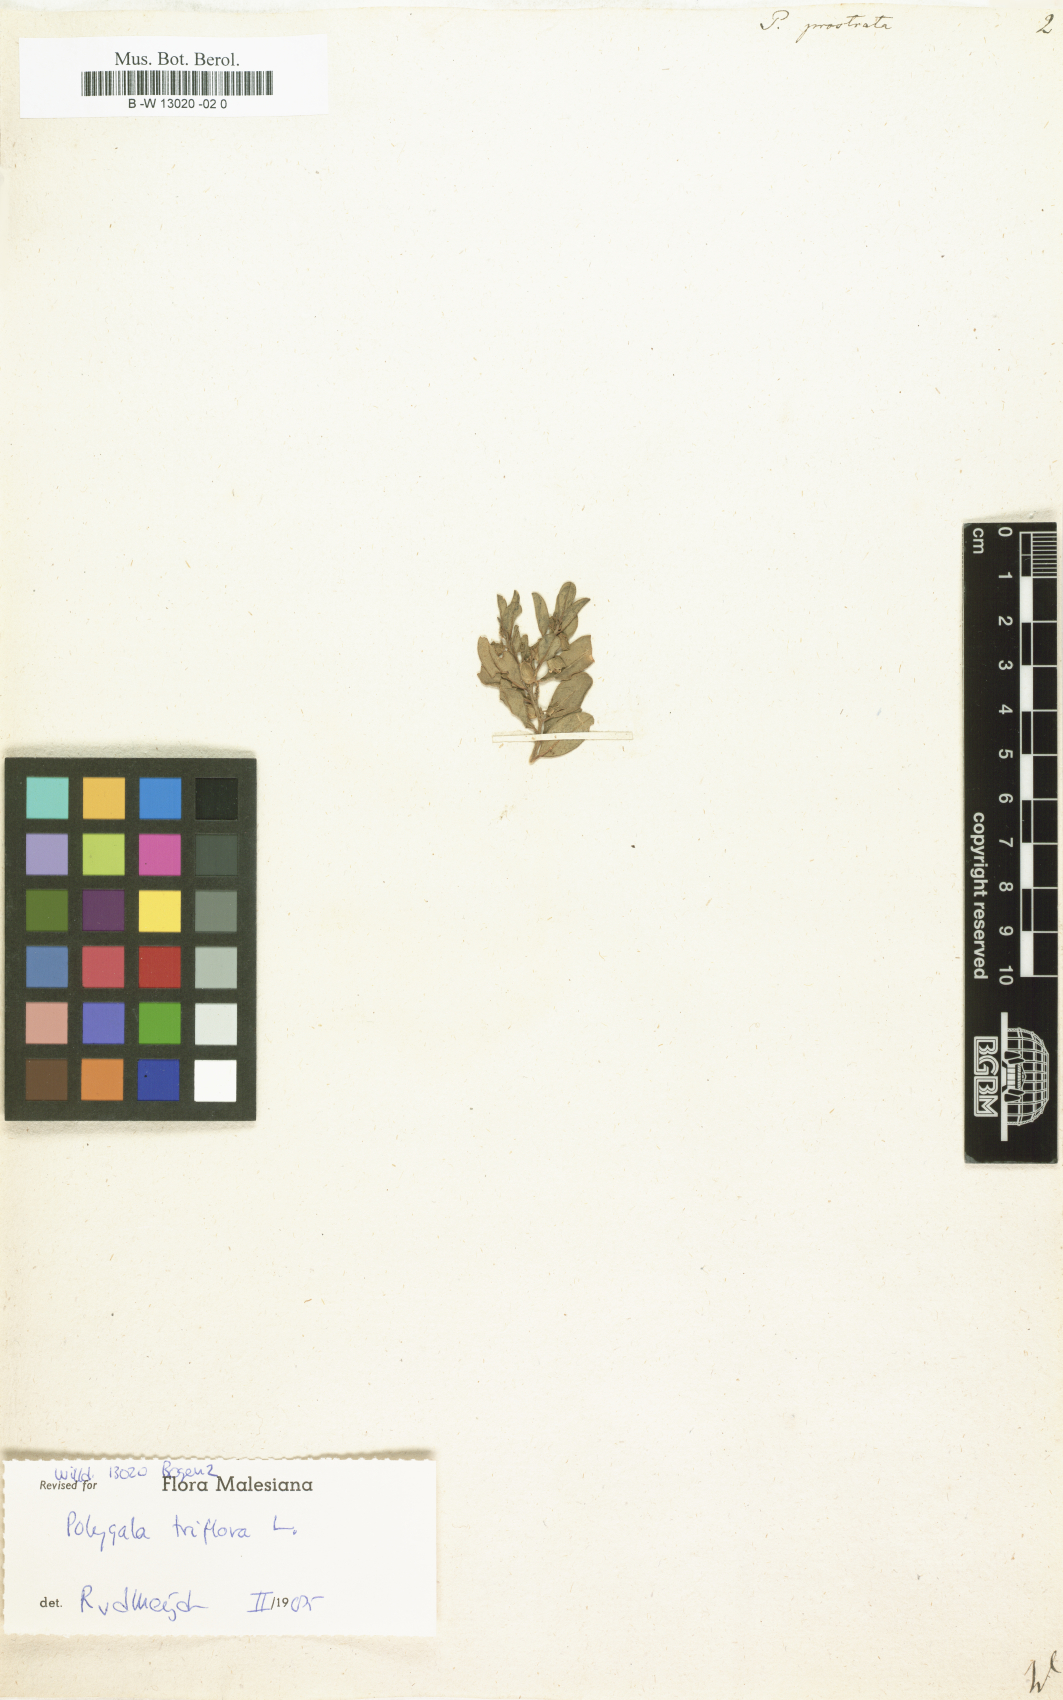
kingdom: Plantae
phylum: Tracheophyta
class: Magnoliopsida
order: Fabales
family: Polygalaceae
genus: Polygala
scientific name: Polygala
